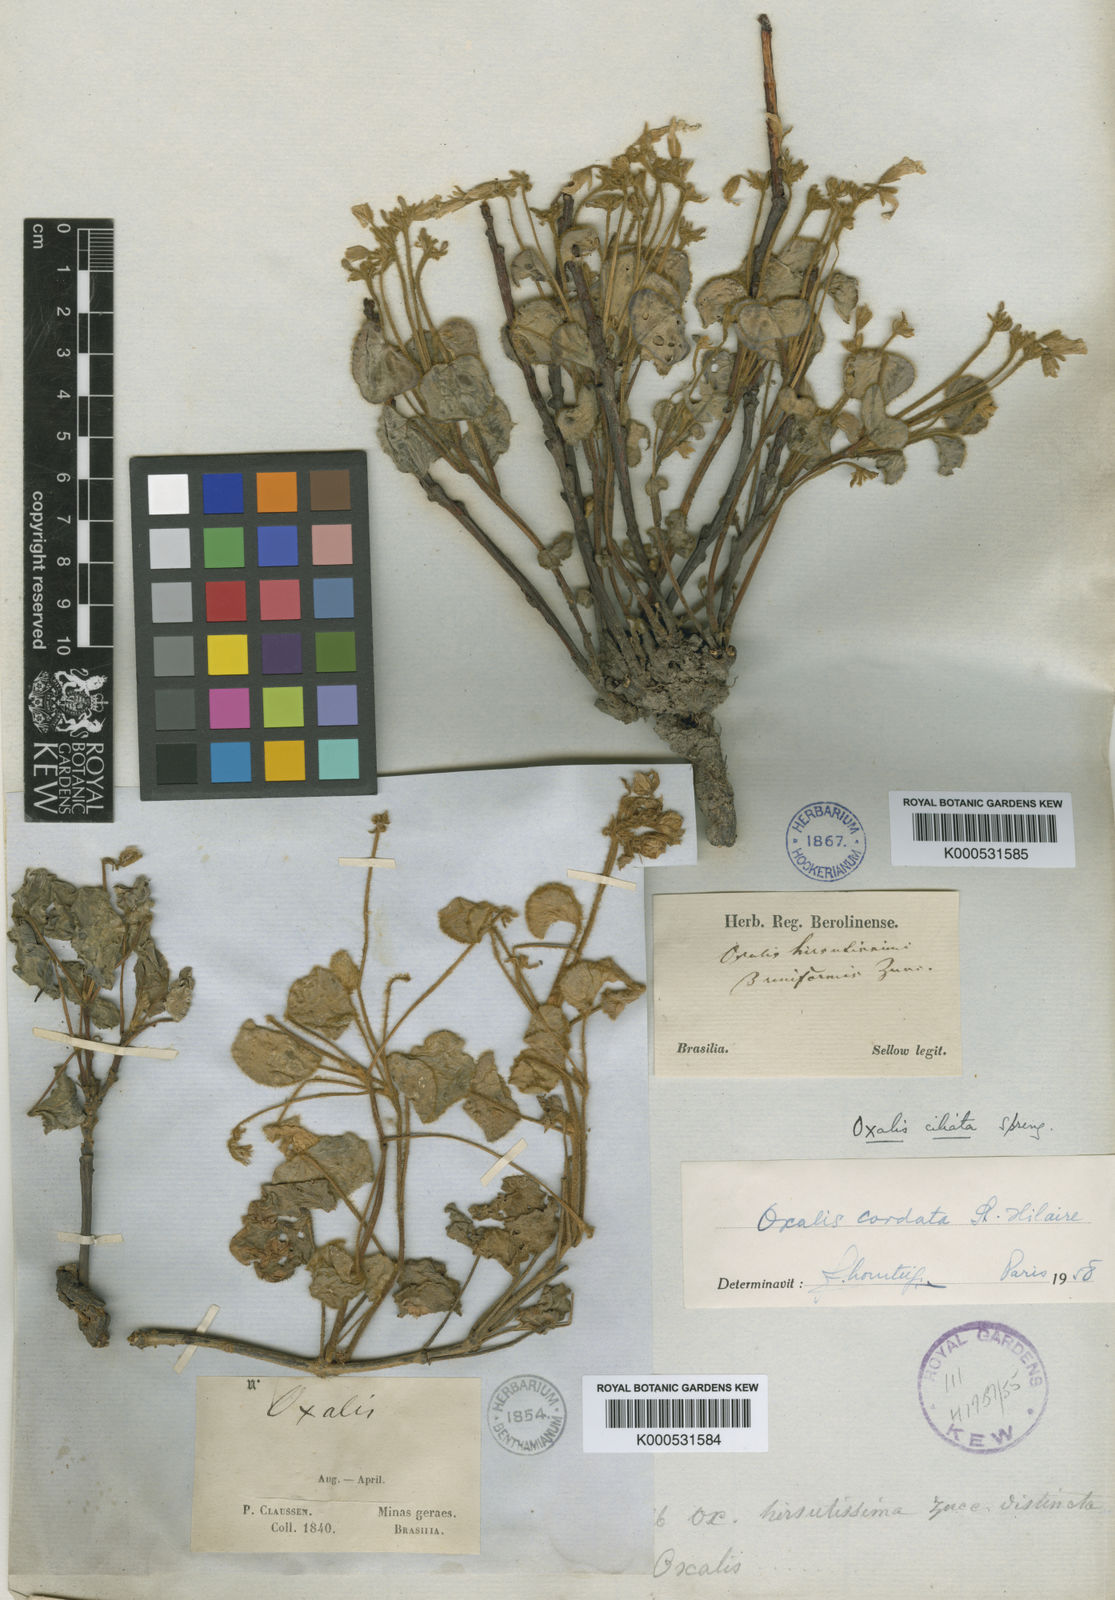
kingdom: Plantae
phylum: Tracheophyta
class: Magnoliopsida
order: Oxalidales
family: Oxalidaceae
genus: Oxalis
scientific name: Oxalis cordata
